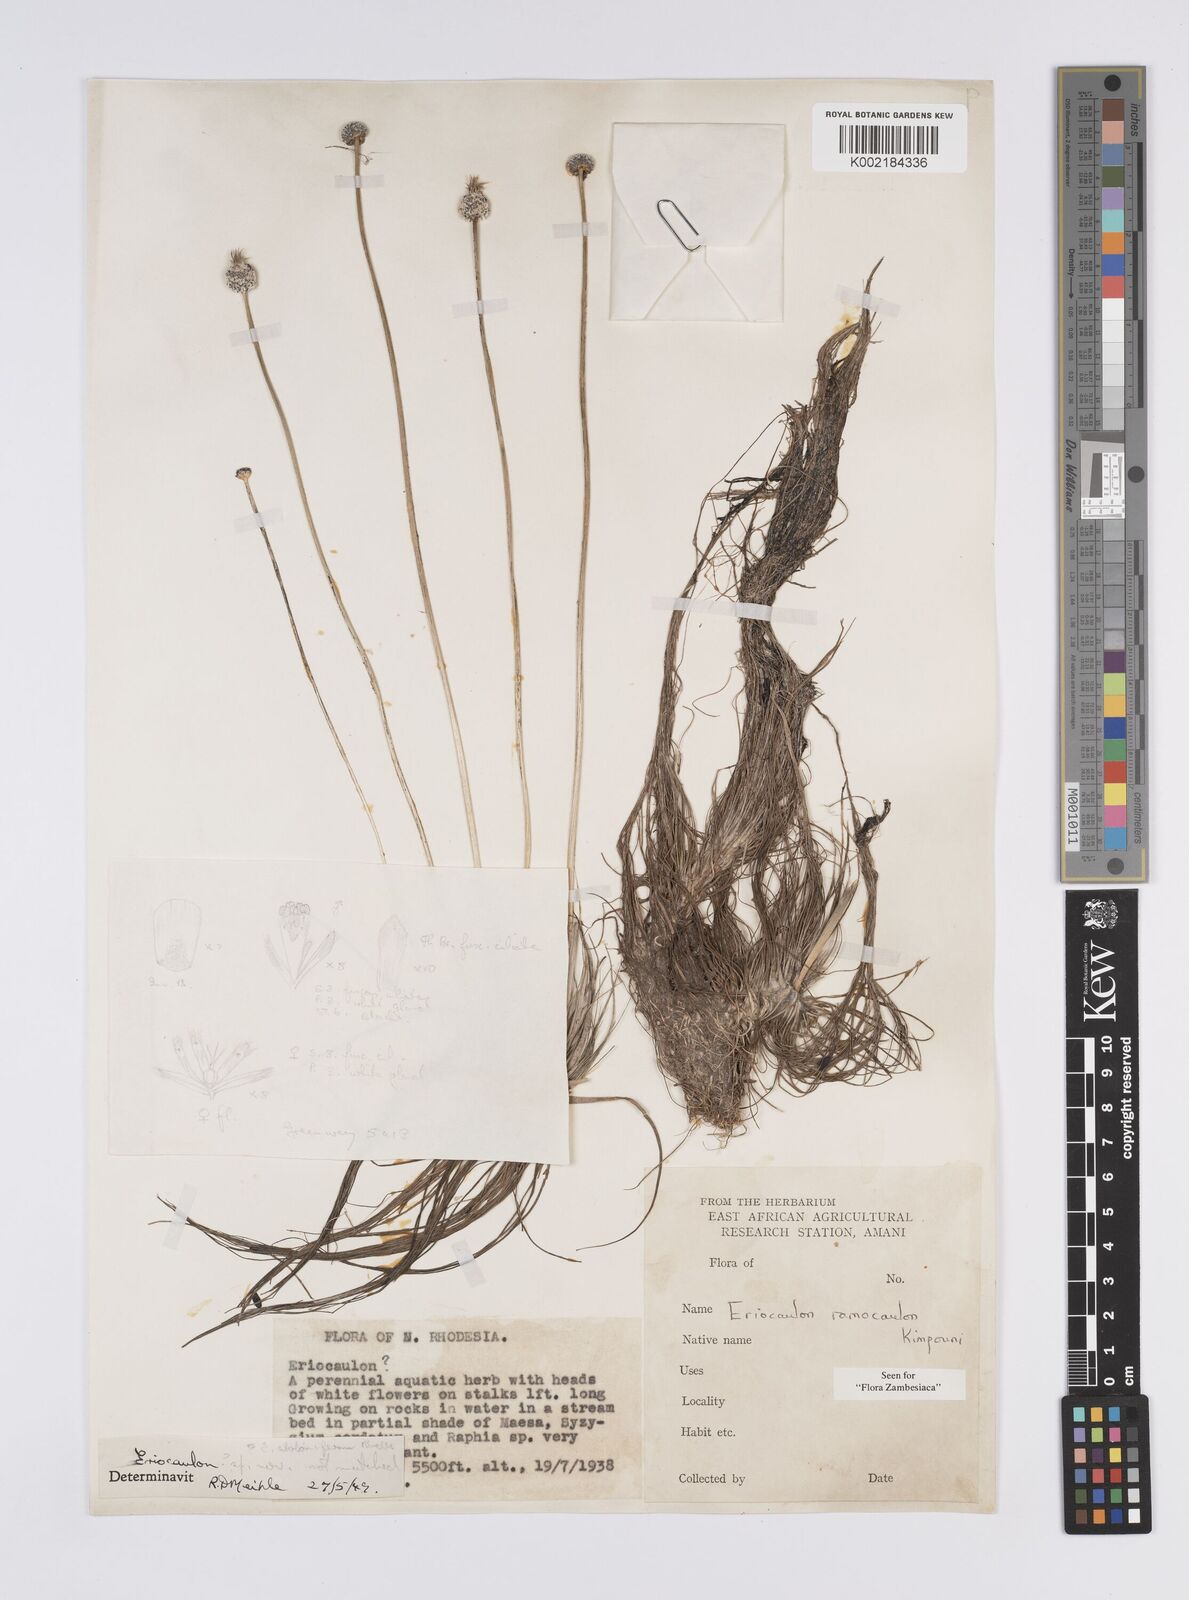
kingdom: Plantae
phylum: Tracheophyta
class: Liliopsida
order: Poales
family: Eriocaulaceae
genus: Eriocaulon
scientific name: Eriocaulon ramocaulon
